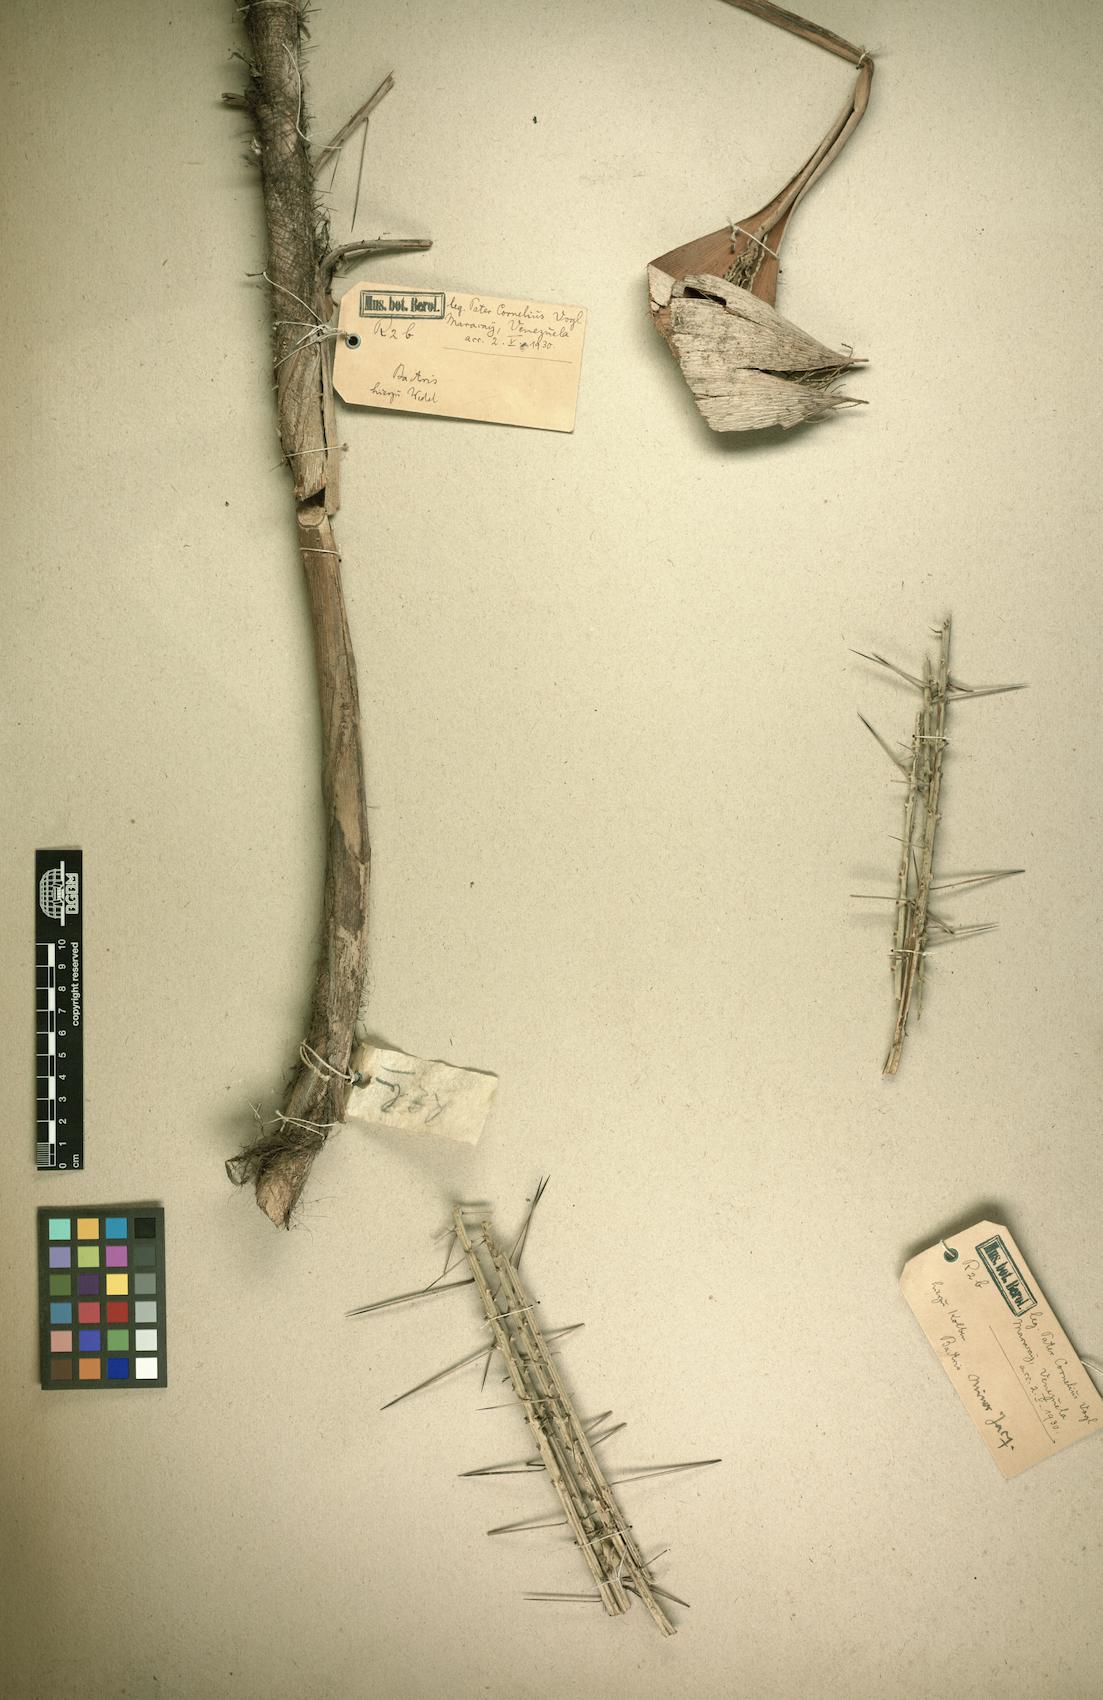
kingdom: Plantae
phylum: Tracheophyta
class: Liliopsida
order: Arecales
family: Arecaceae
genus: Bactris
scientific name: Bactris guineensis
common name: Tobago cane
